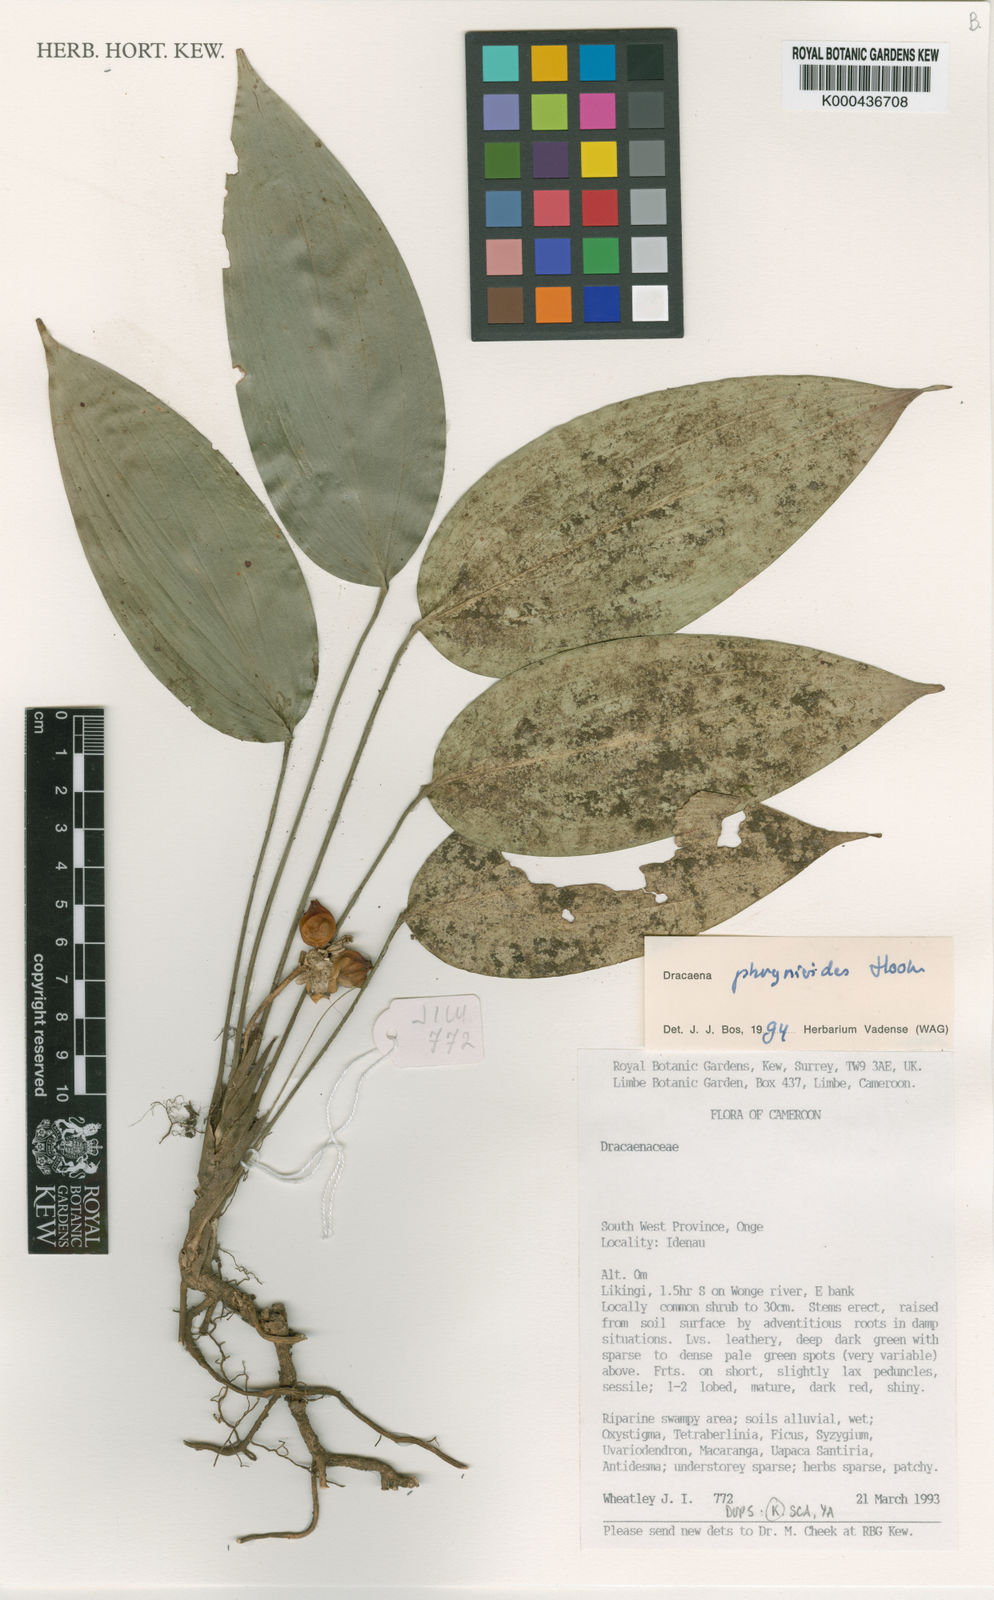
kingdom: Plantae
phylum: Tracheophyta
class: Liliopsida
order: Asparagales
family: Asparagaceae
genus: Dracaena
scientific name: Dracaena phrynioides
